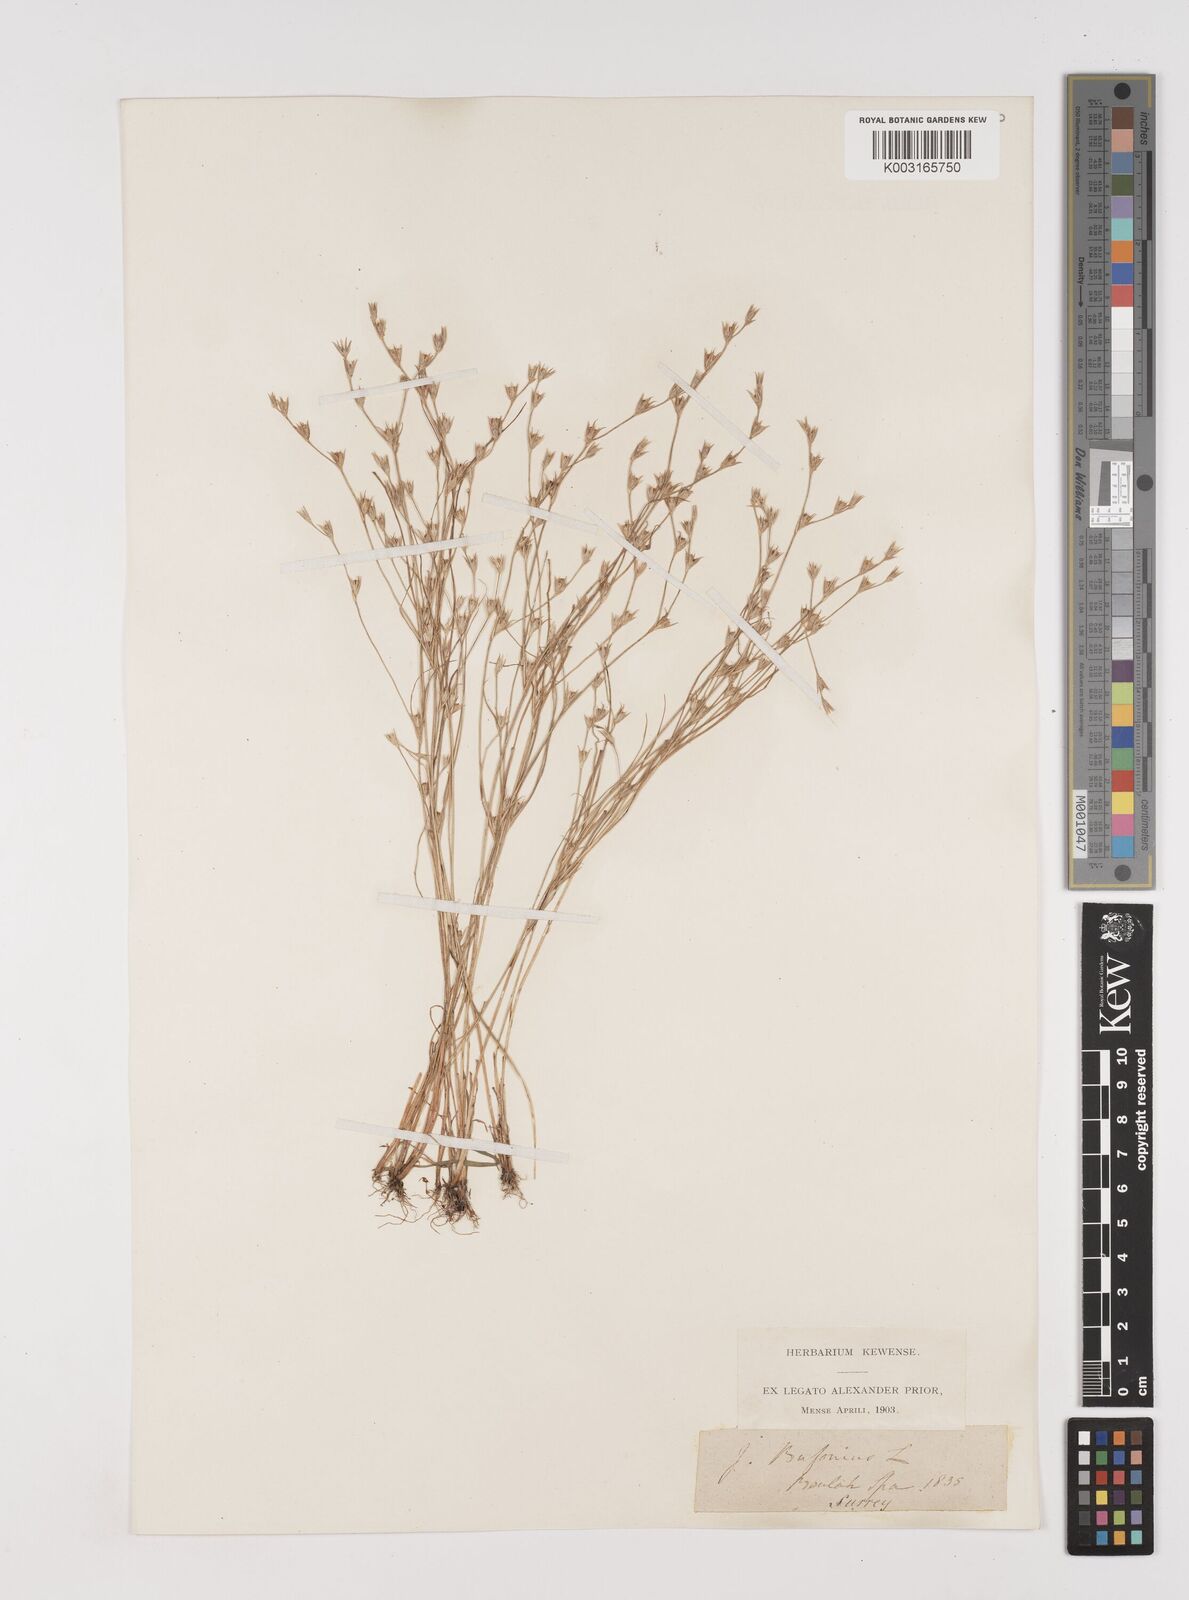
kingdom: Plantae
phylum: Tracheophyta
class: Liliopsida
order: Poales
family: Juncaceae
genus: Juncus
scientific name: Juncus bufonius
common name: Toad rush
